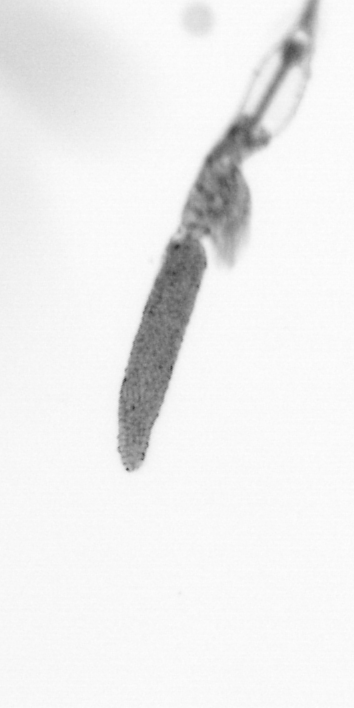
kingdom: Animalia
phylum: Arthropoda
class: Copepoda
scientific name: Copepoda
